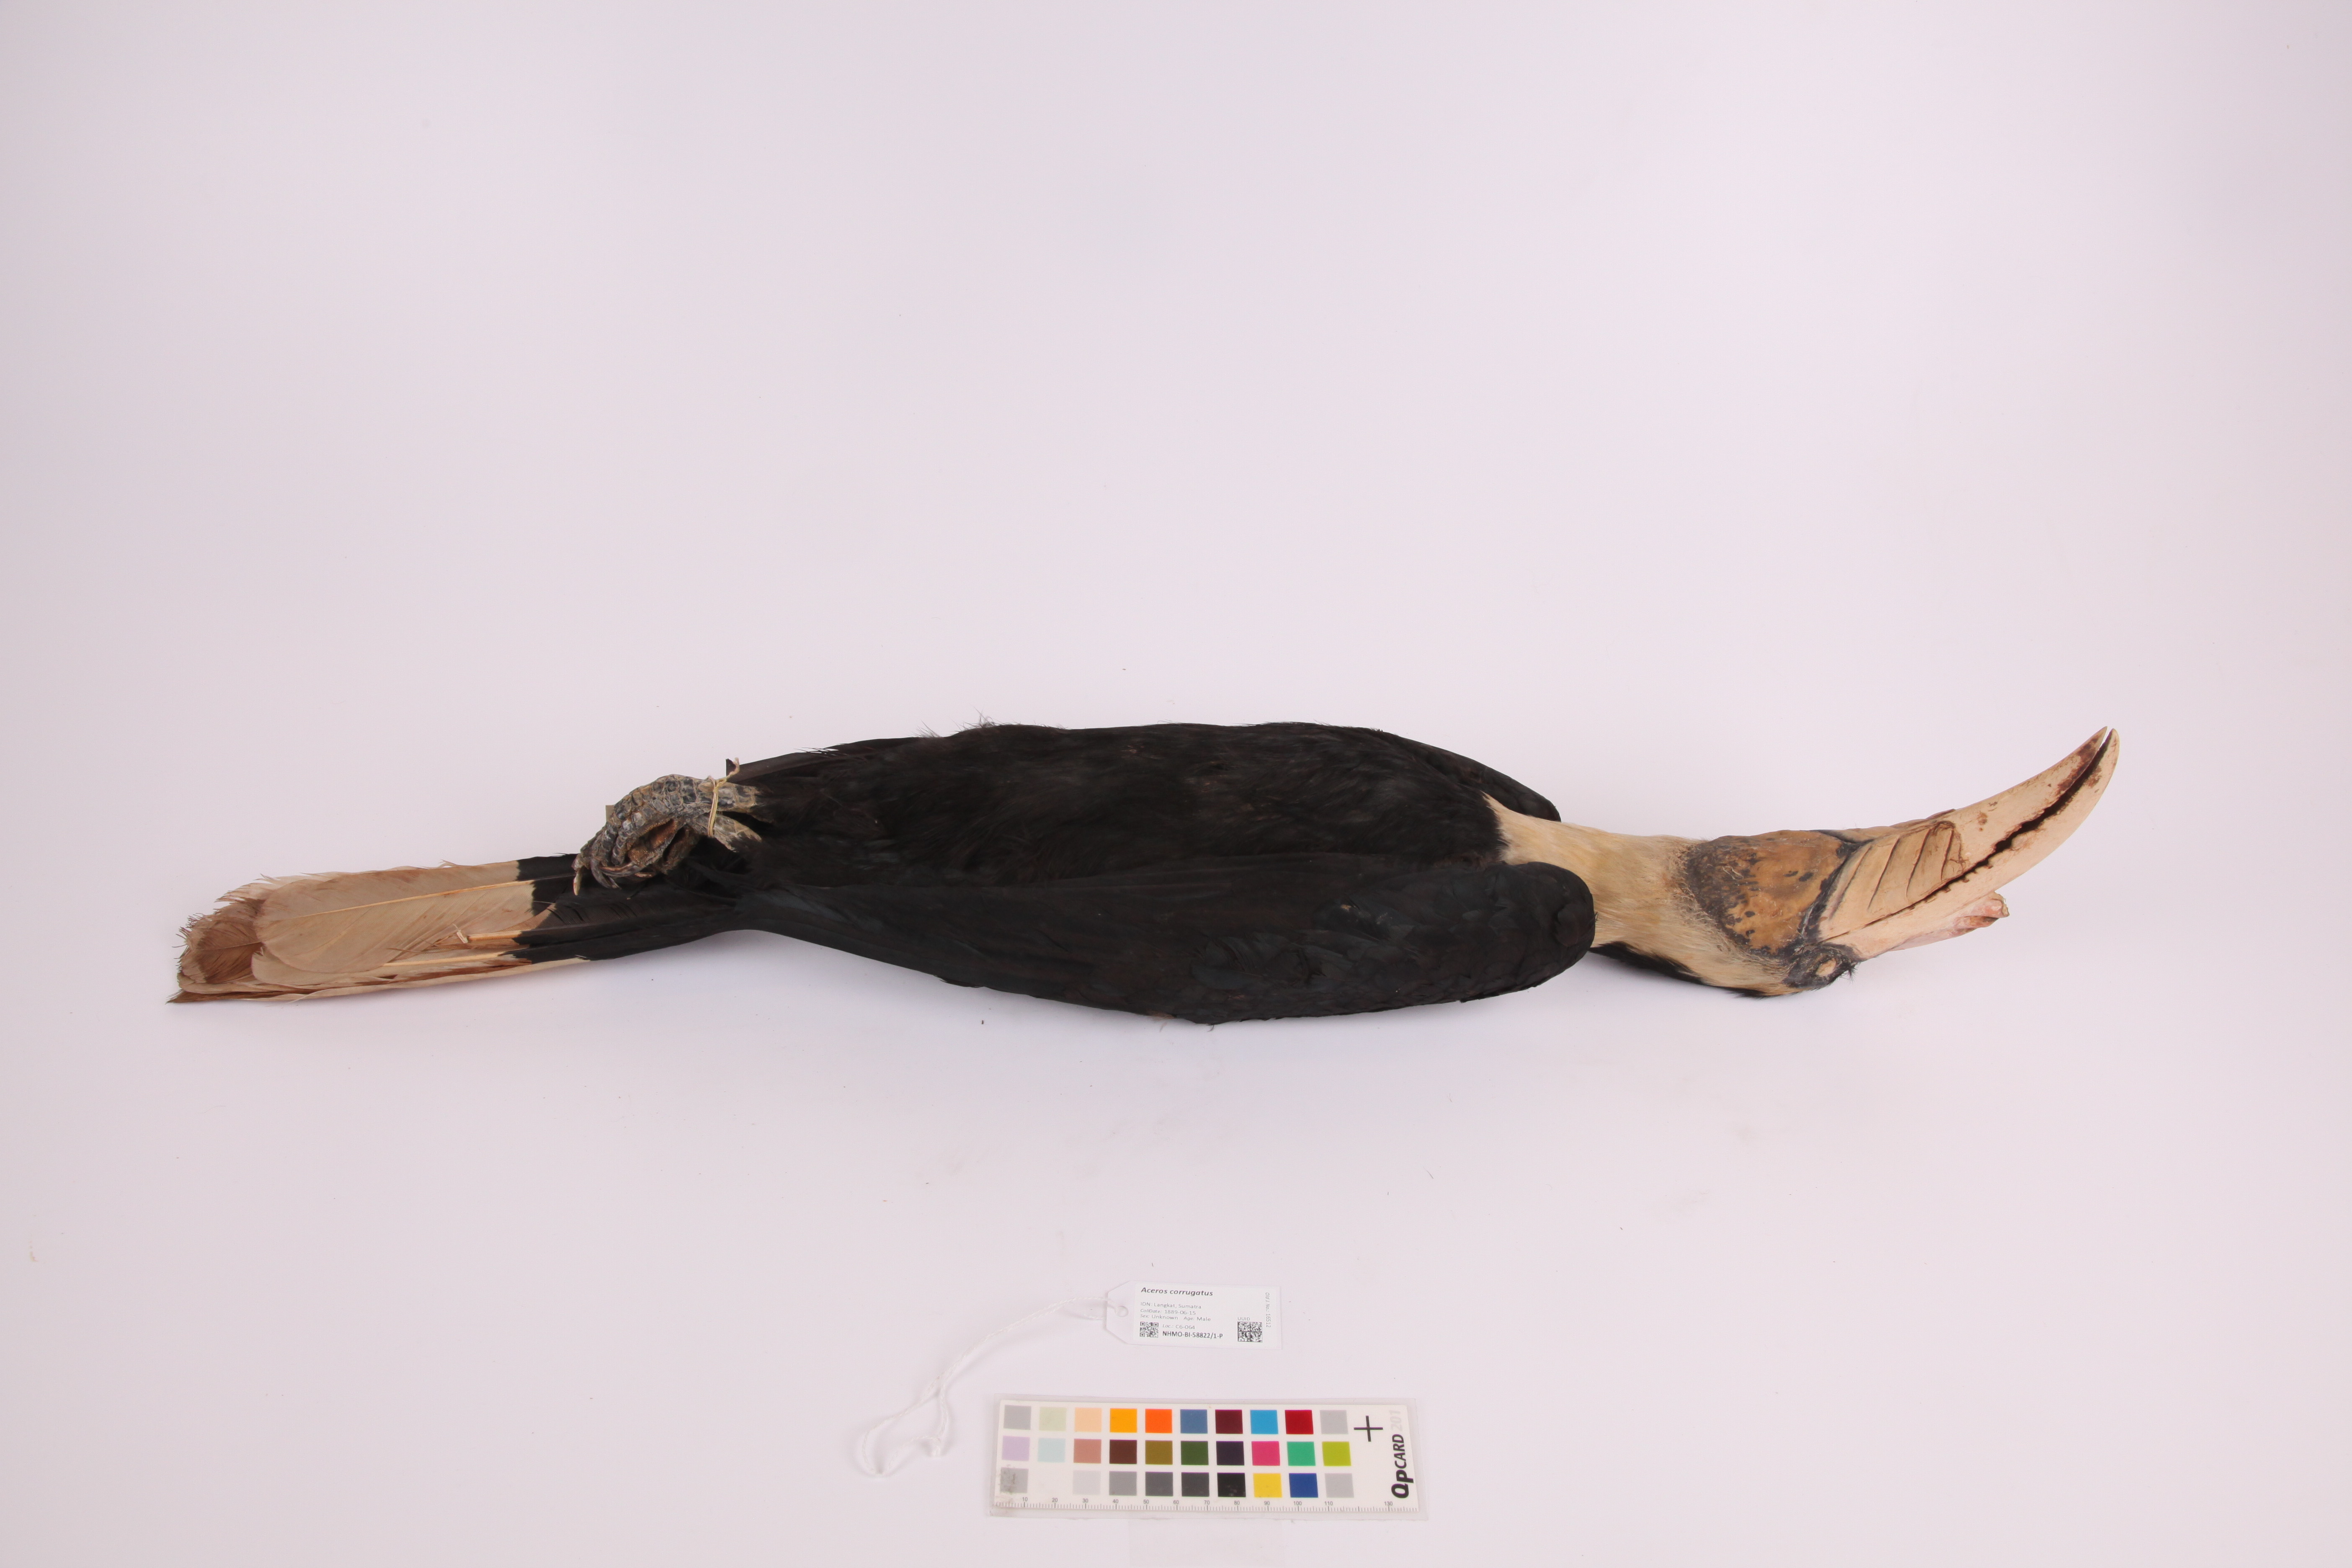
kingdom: Animalia
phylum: Chordata
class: Aves
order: Bucerotiformes
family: Bucerotidae
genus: Rhabdotorrhinus
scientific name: Rhabdotorrhinus corrugatus
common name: Wrinkled hornbill
